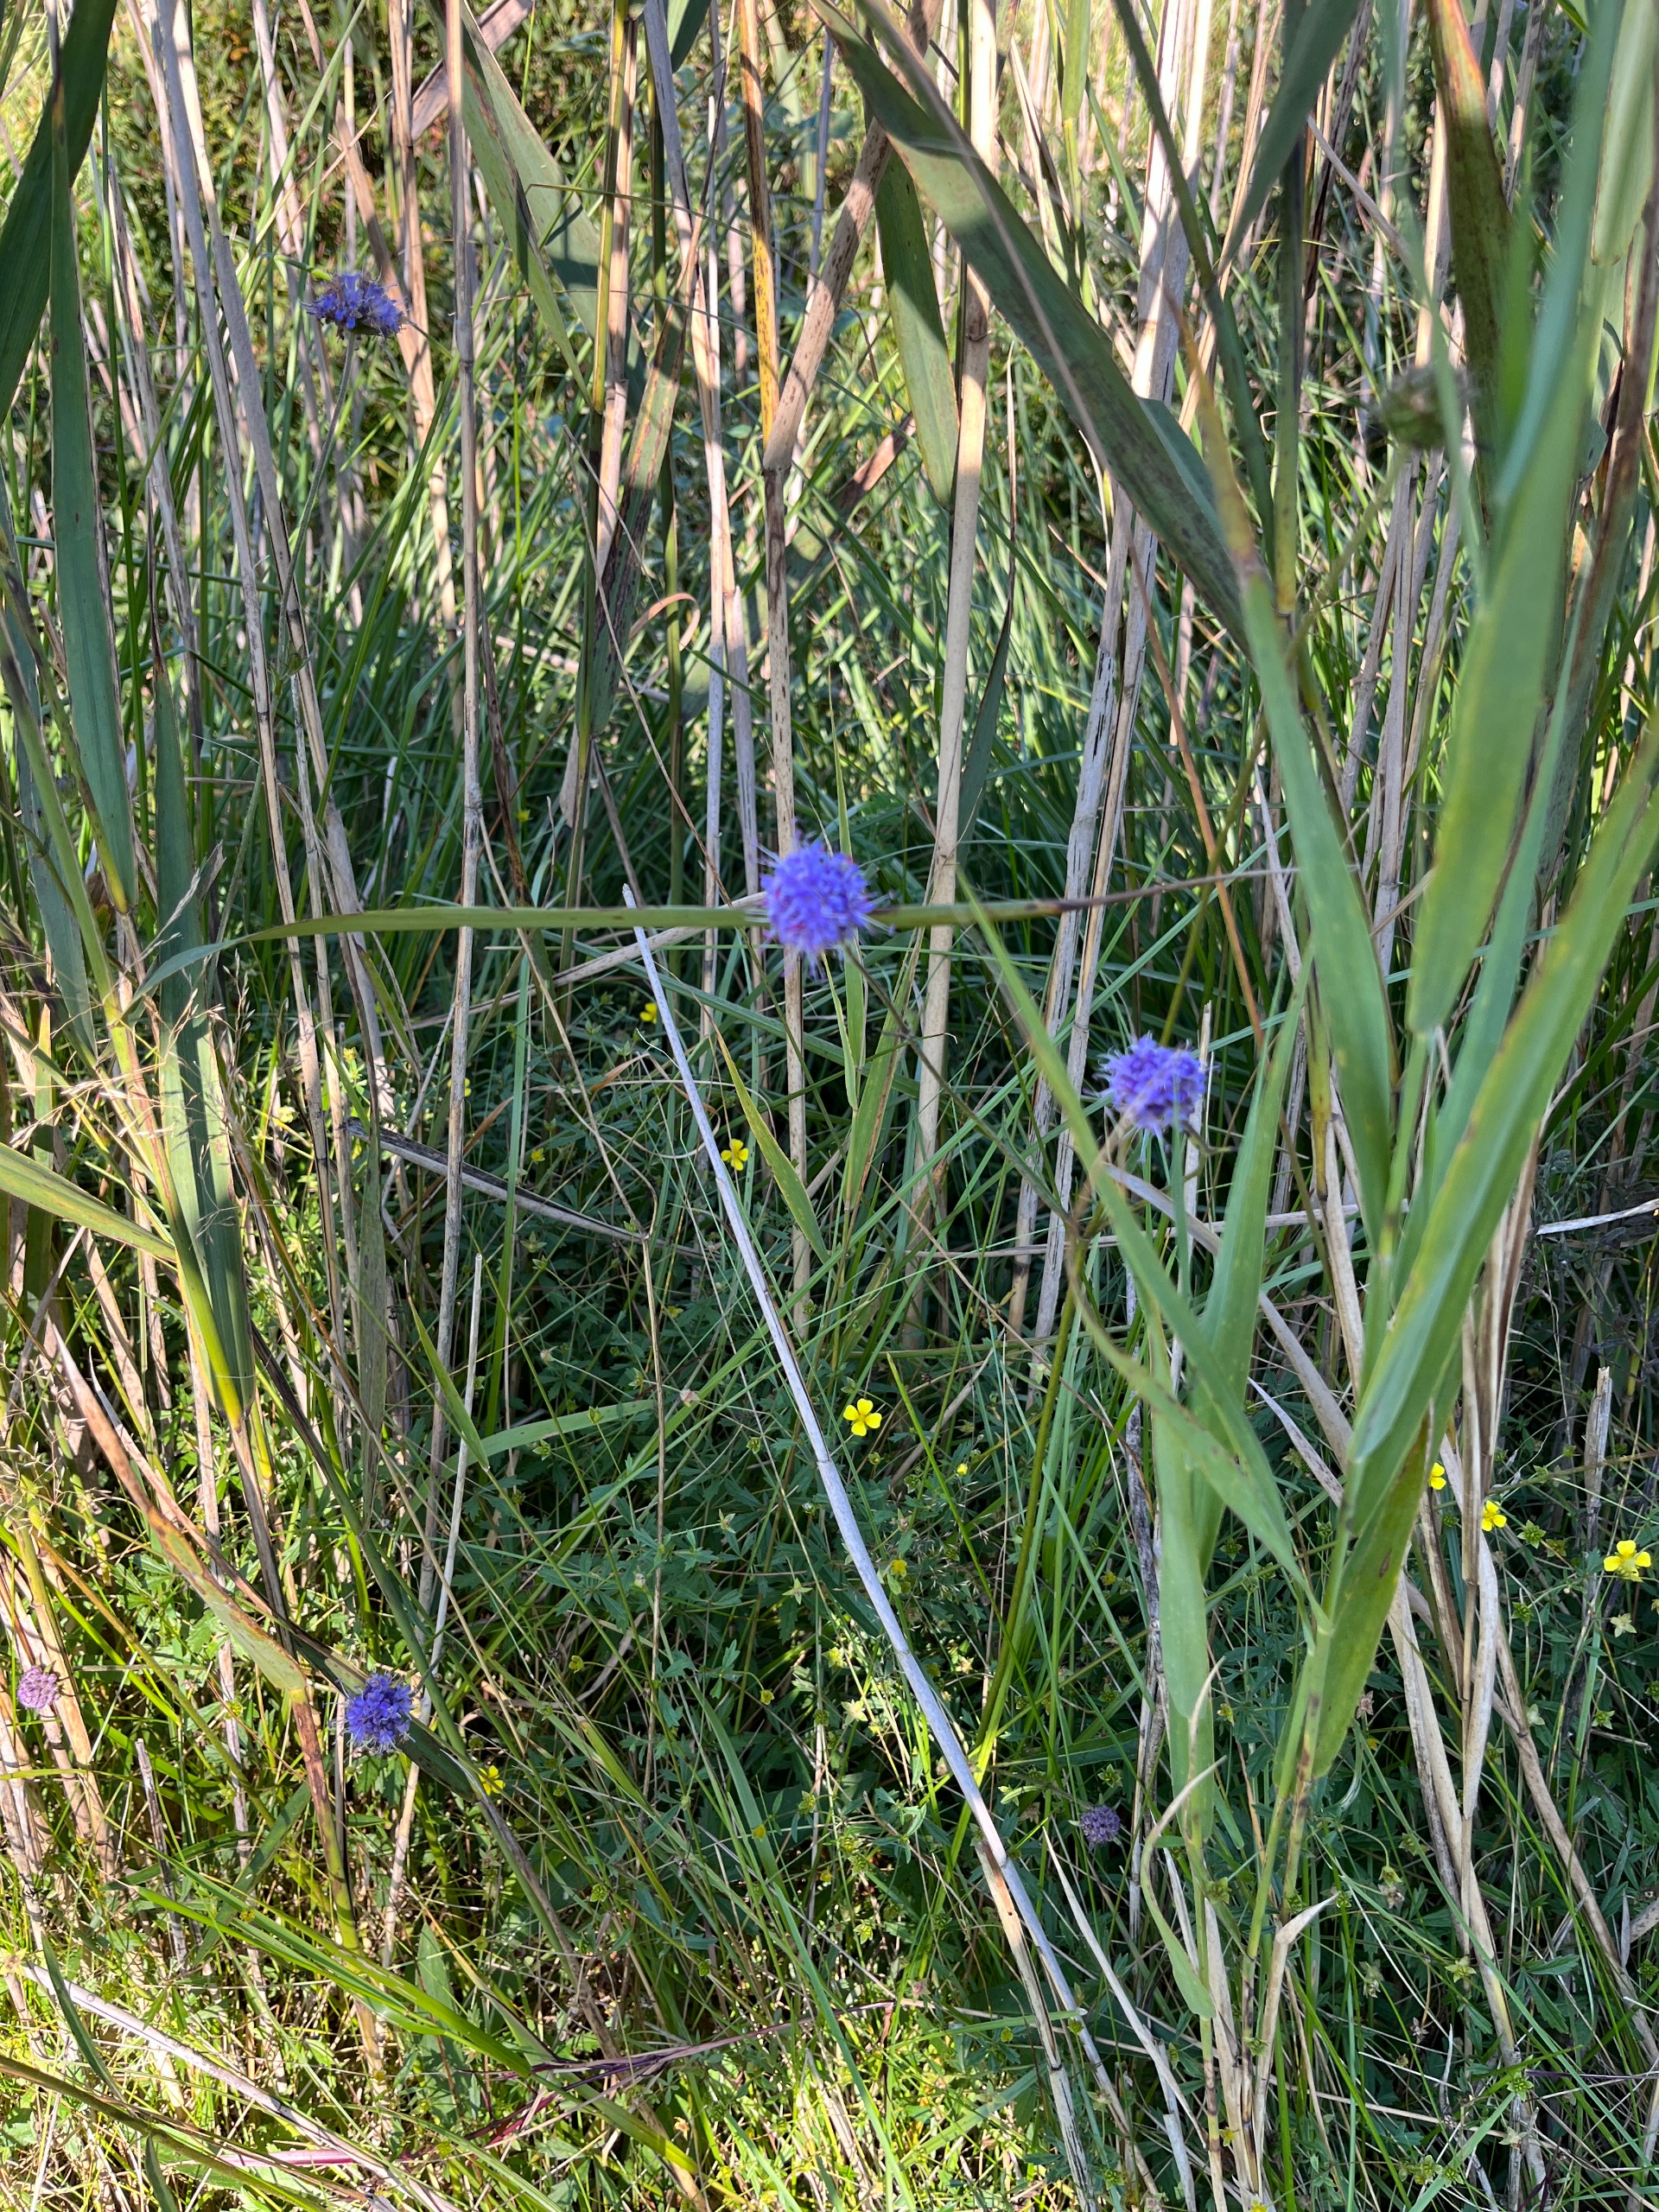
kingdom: Plantae
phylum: Tracheophyta
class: Magnoliopsida
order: Dipsacales
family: Caprifoliaceae
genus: Succisa
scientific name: Succisa pratensis
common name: Djævelsbid
